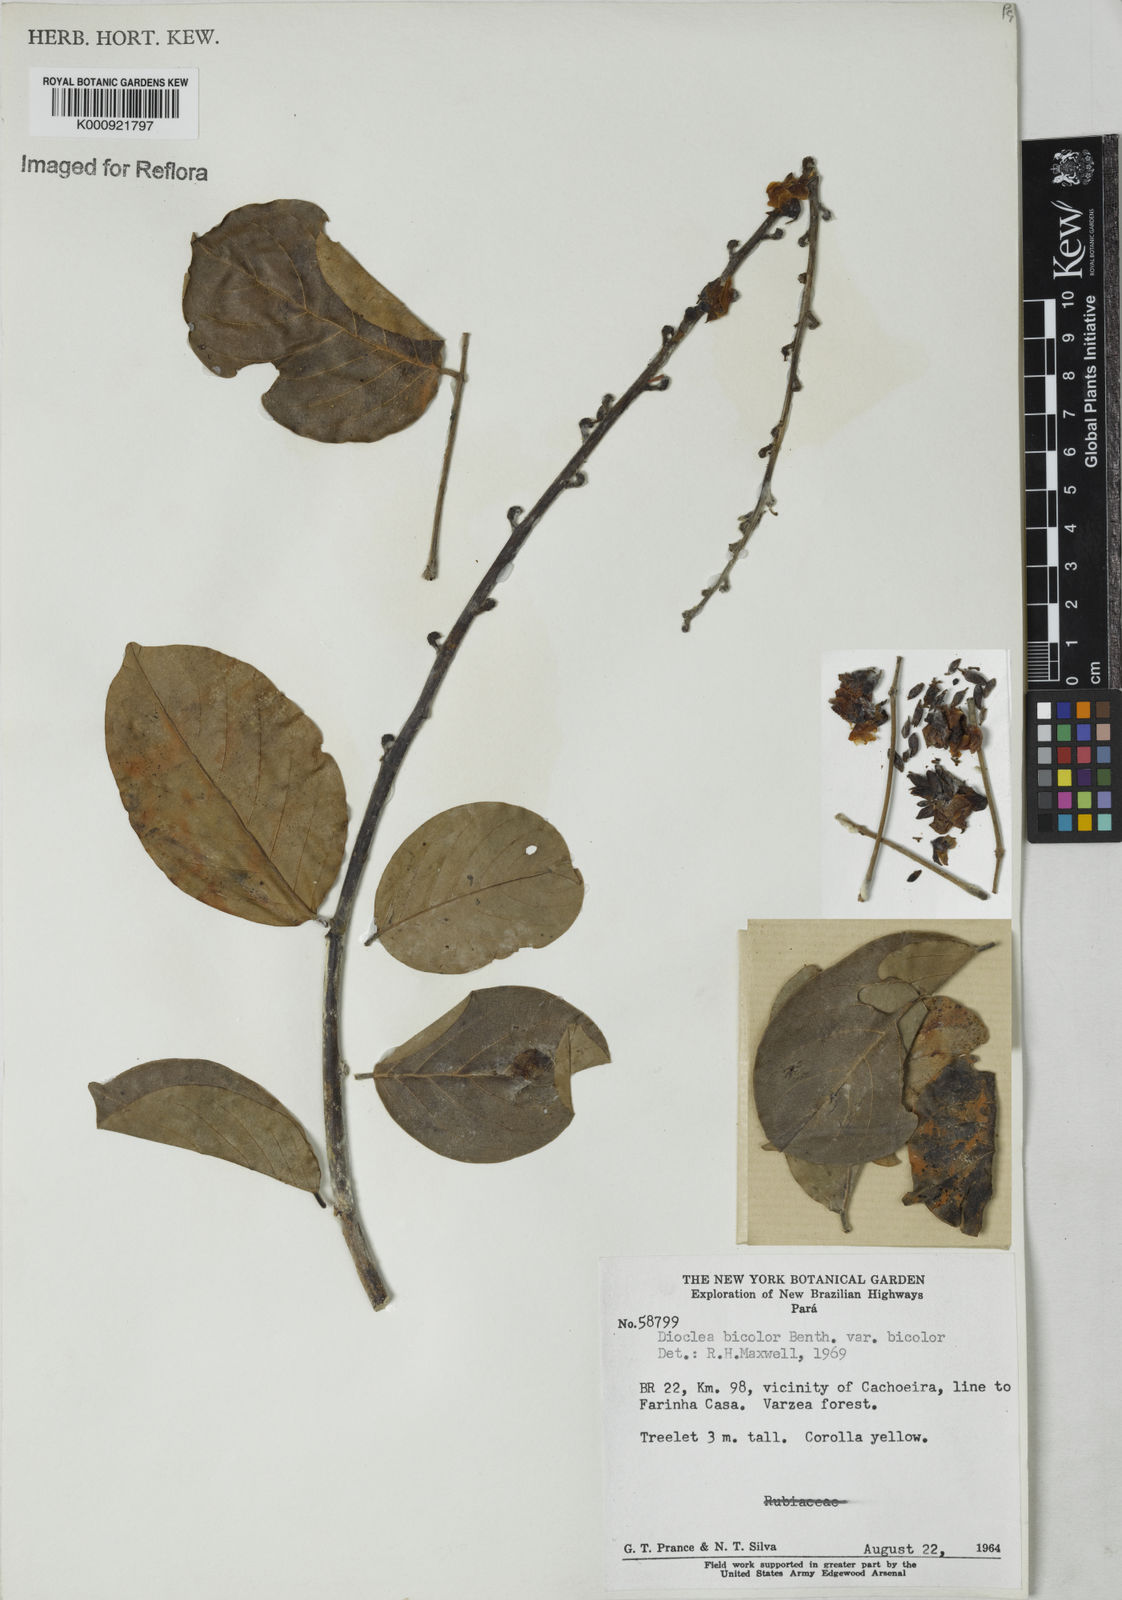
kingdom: Plantae
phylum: Tracheophyta
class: Magnoliopsida
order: Fabales
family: Fabaceae
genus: Macropsychanthus
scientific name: Macropsychanthus bicolor
